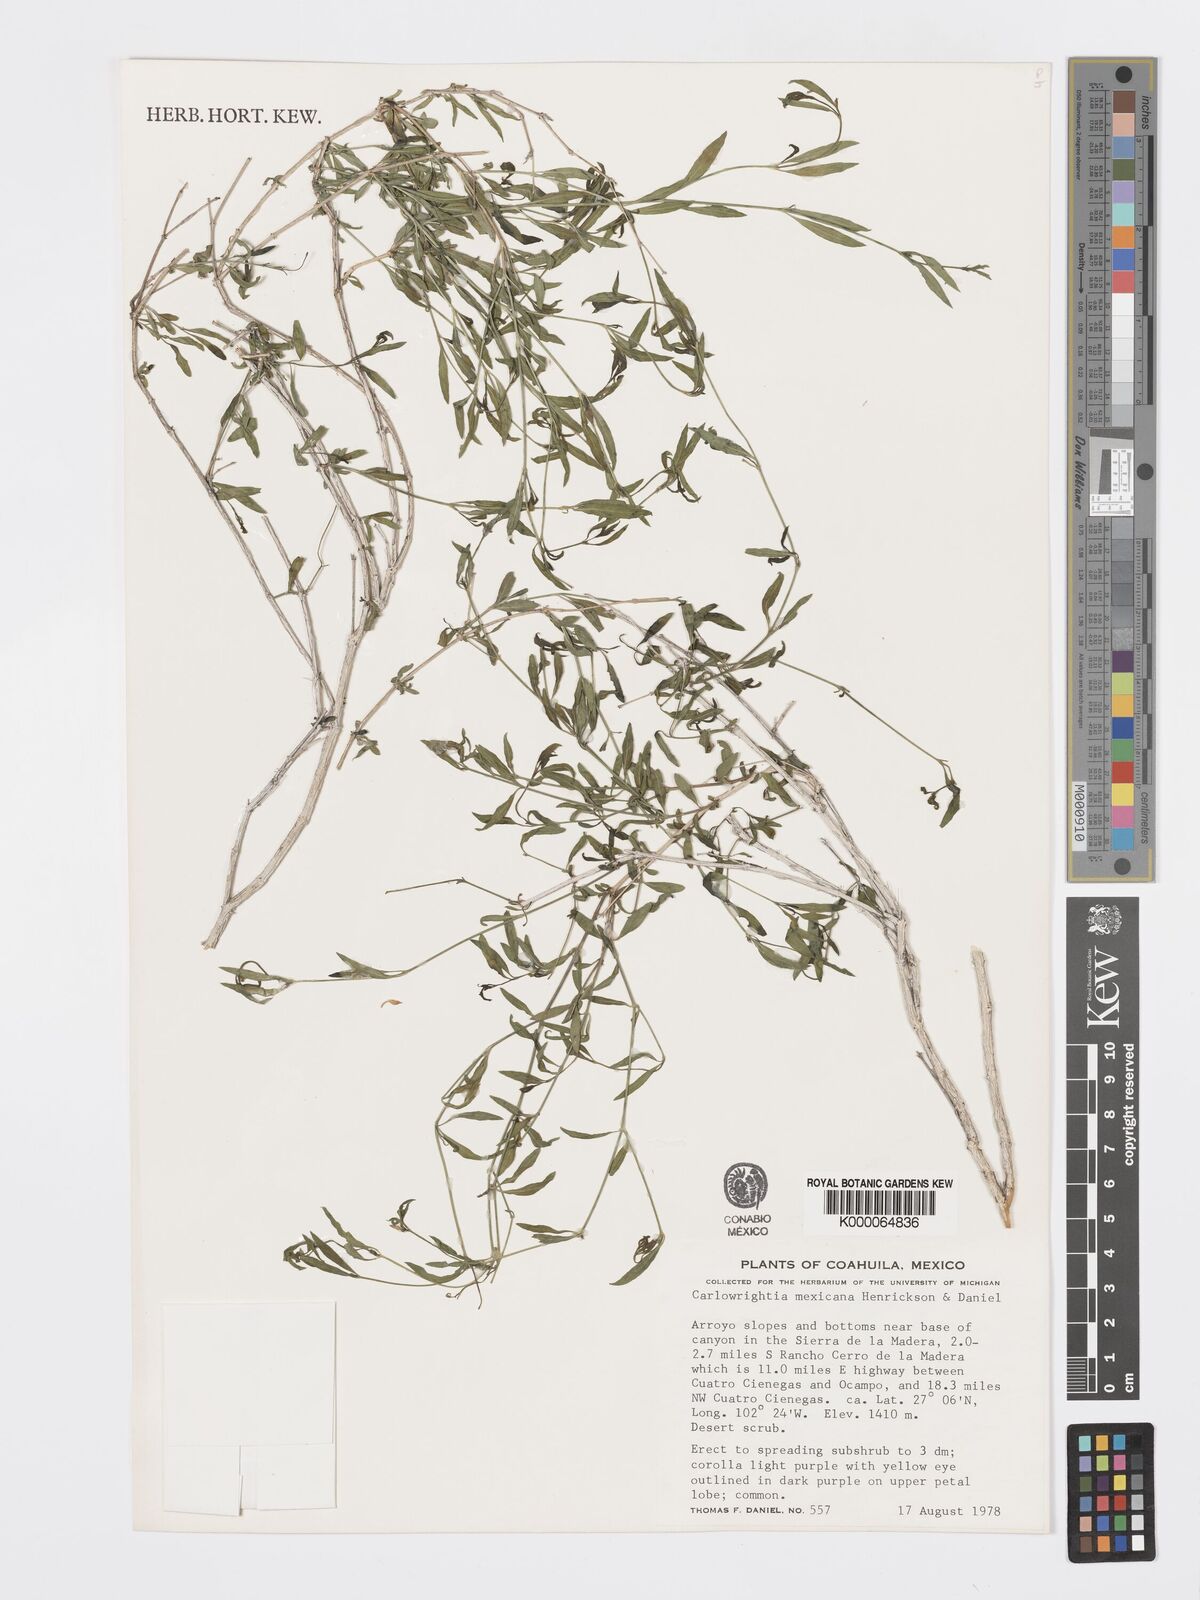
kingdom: Plantae
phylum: Tracheophyta
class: Magnoliopsida
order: Lamiales
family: Acanthaceae
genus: Carlowrightia
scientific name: Carlowrightia mexicana
